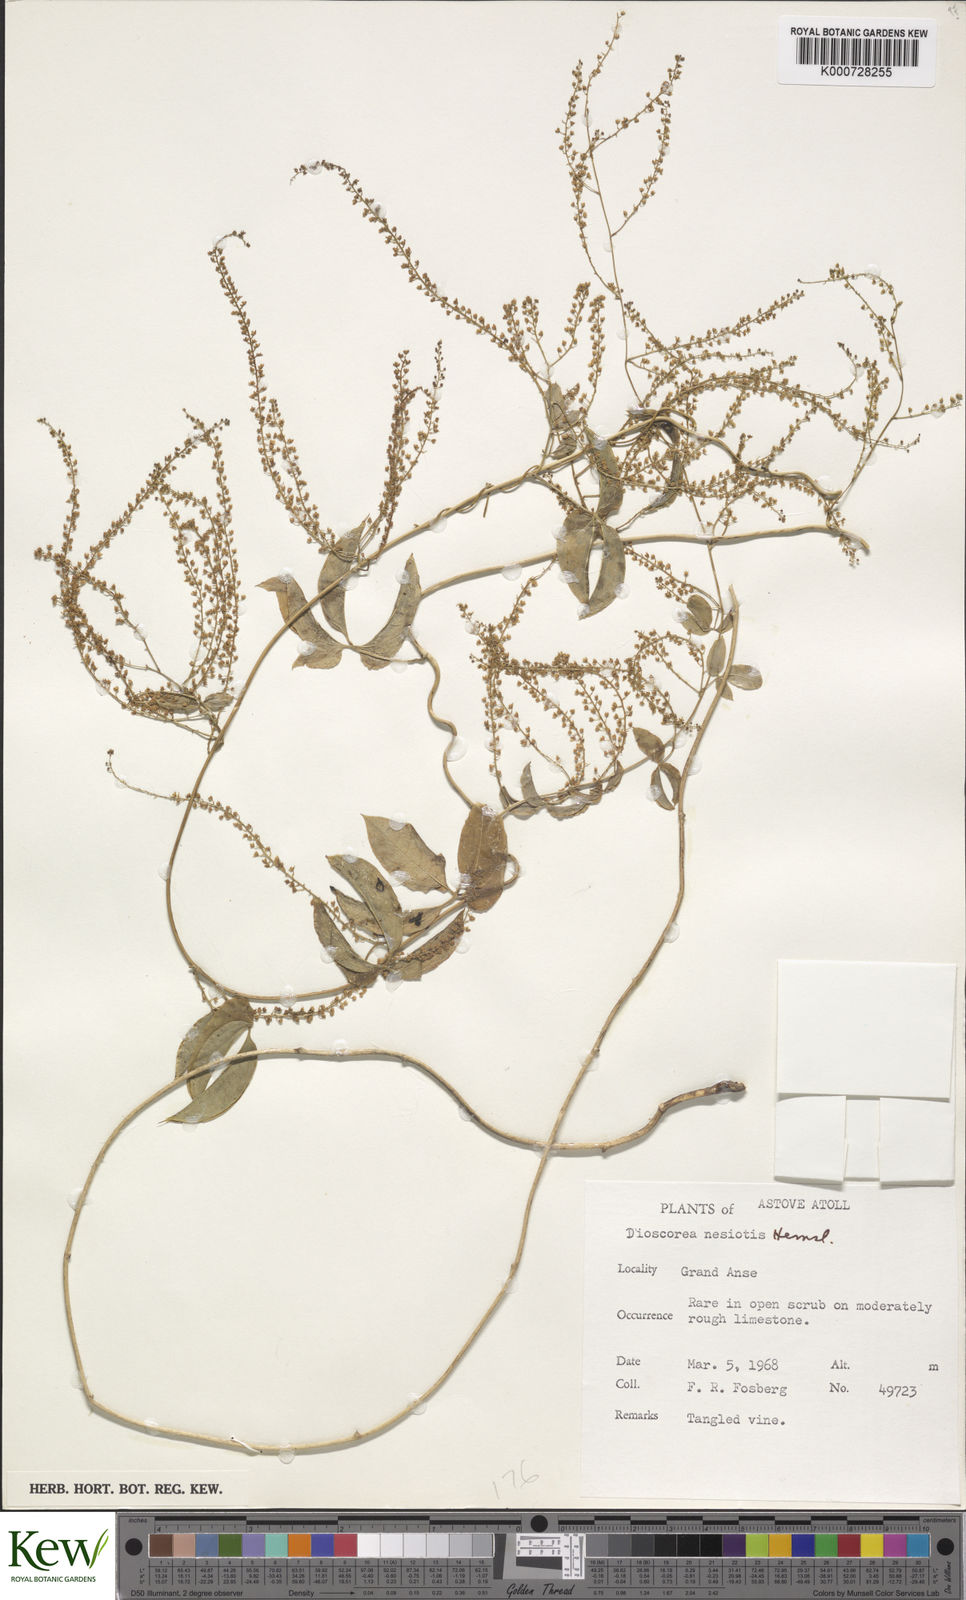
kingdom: Plantae
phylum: Tracheophyta
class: Liliopsida
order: Dioscoreales
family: Dioscoreaceae
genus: Dioscorea
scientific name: Dioscorea bemarivensis
